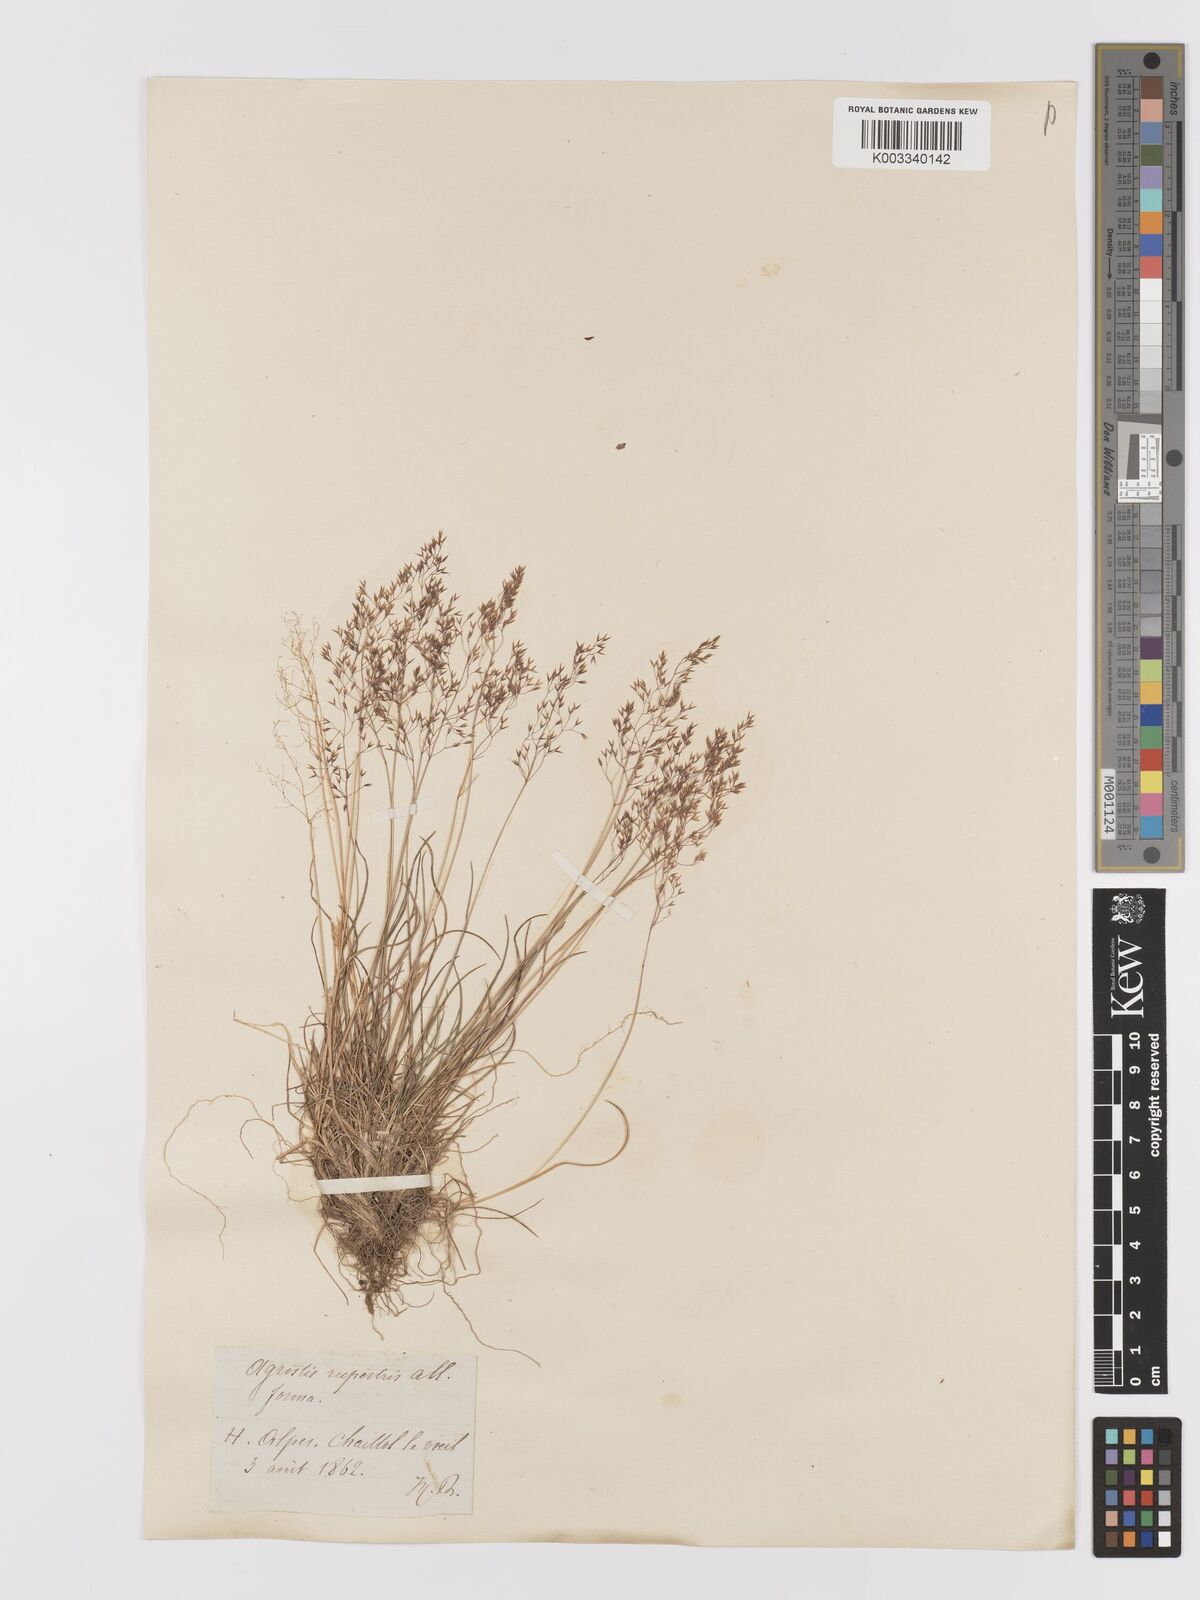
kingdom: Plantae
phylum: Tracheophyta
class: Liliopsida
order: Poales
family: Poaceae
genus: Agrostis
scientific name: Agrostis rupestris
